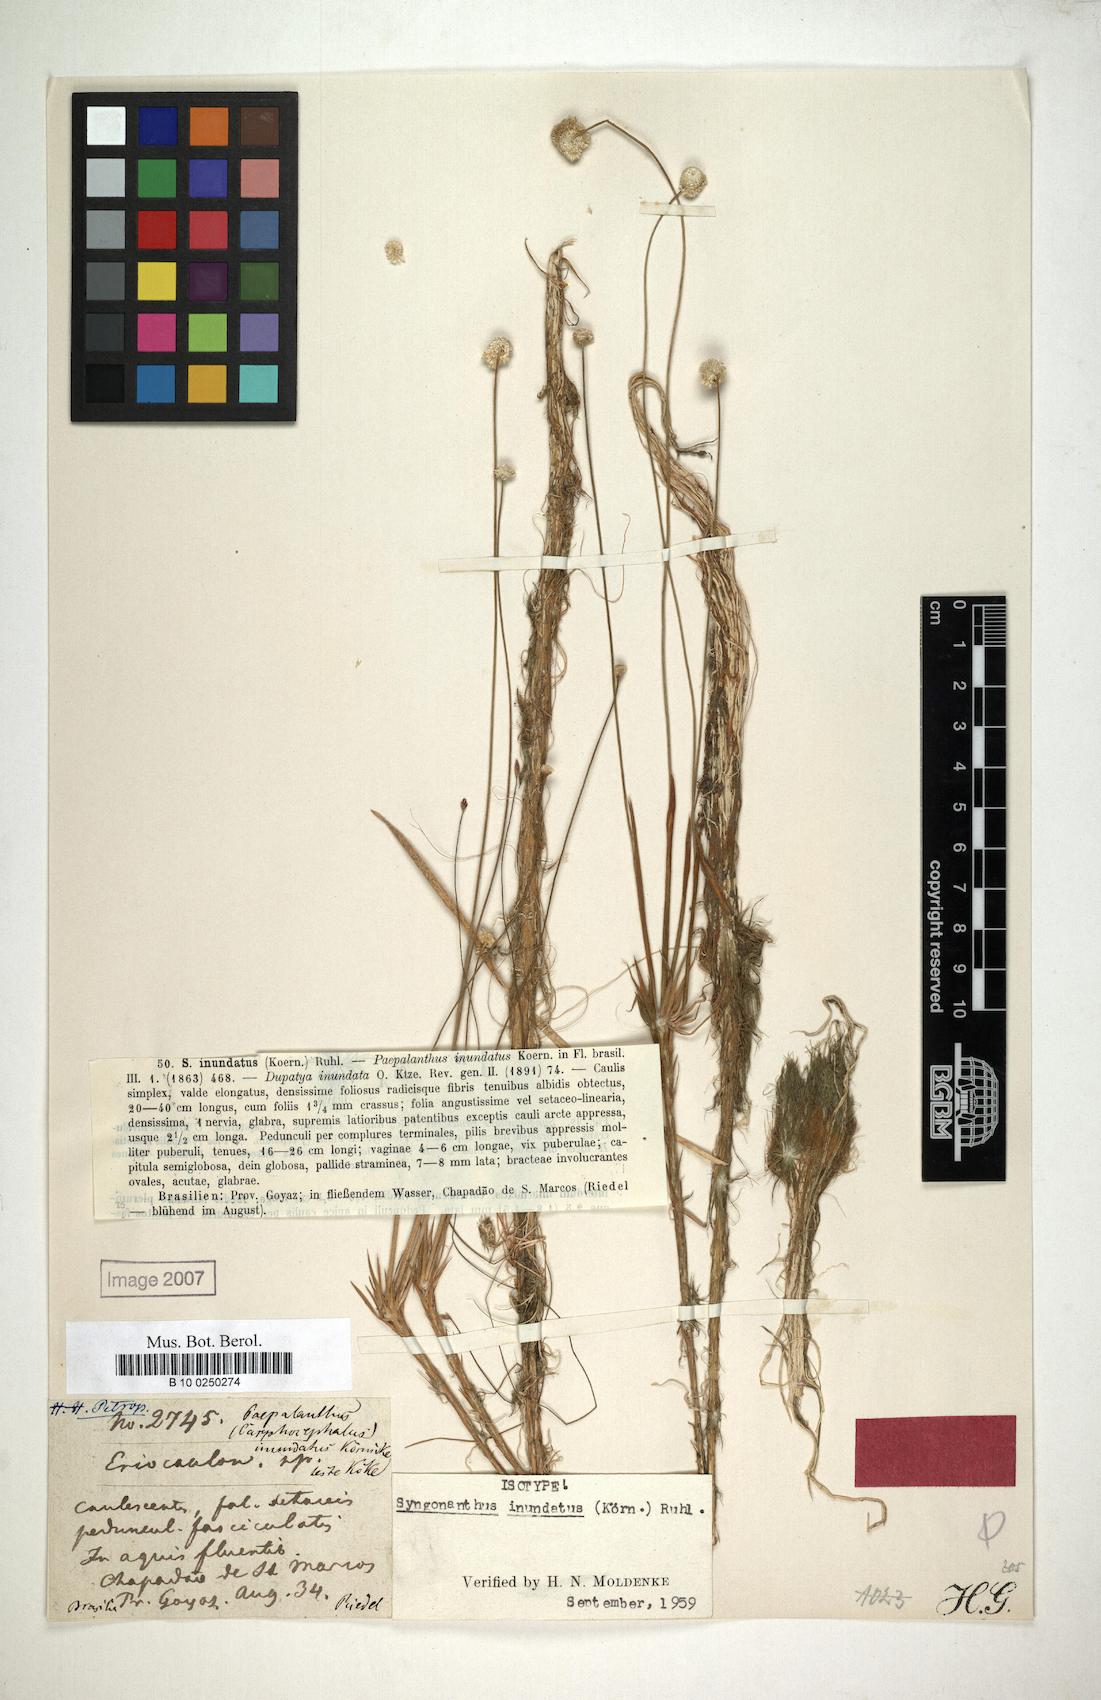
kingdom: Plantae
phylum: Tracheophyta
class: Liliopsida
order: Poales
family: Eriocaulaceae
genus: Syngonanthus
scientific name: Syngonanthus appressus
